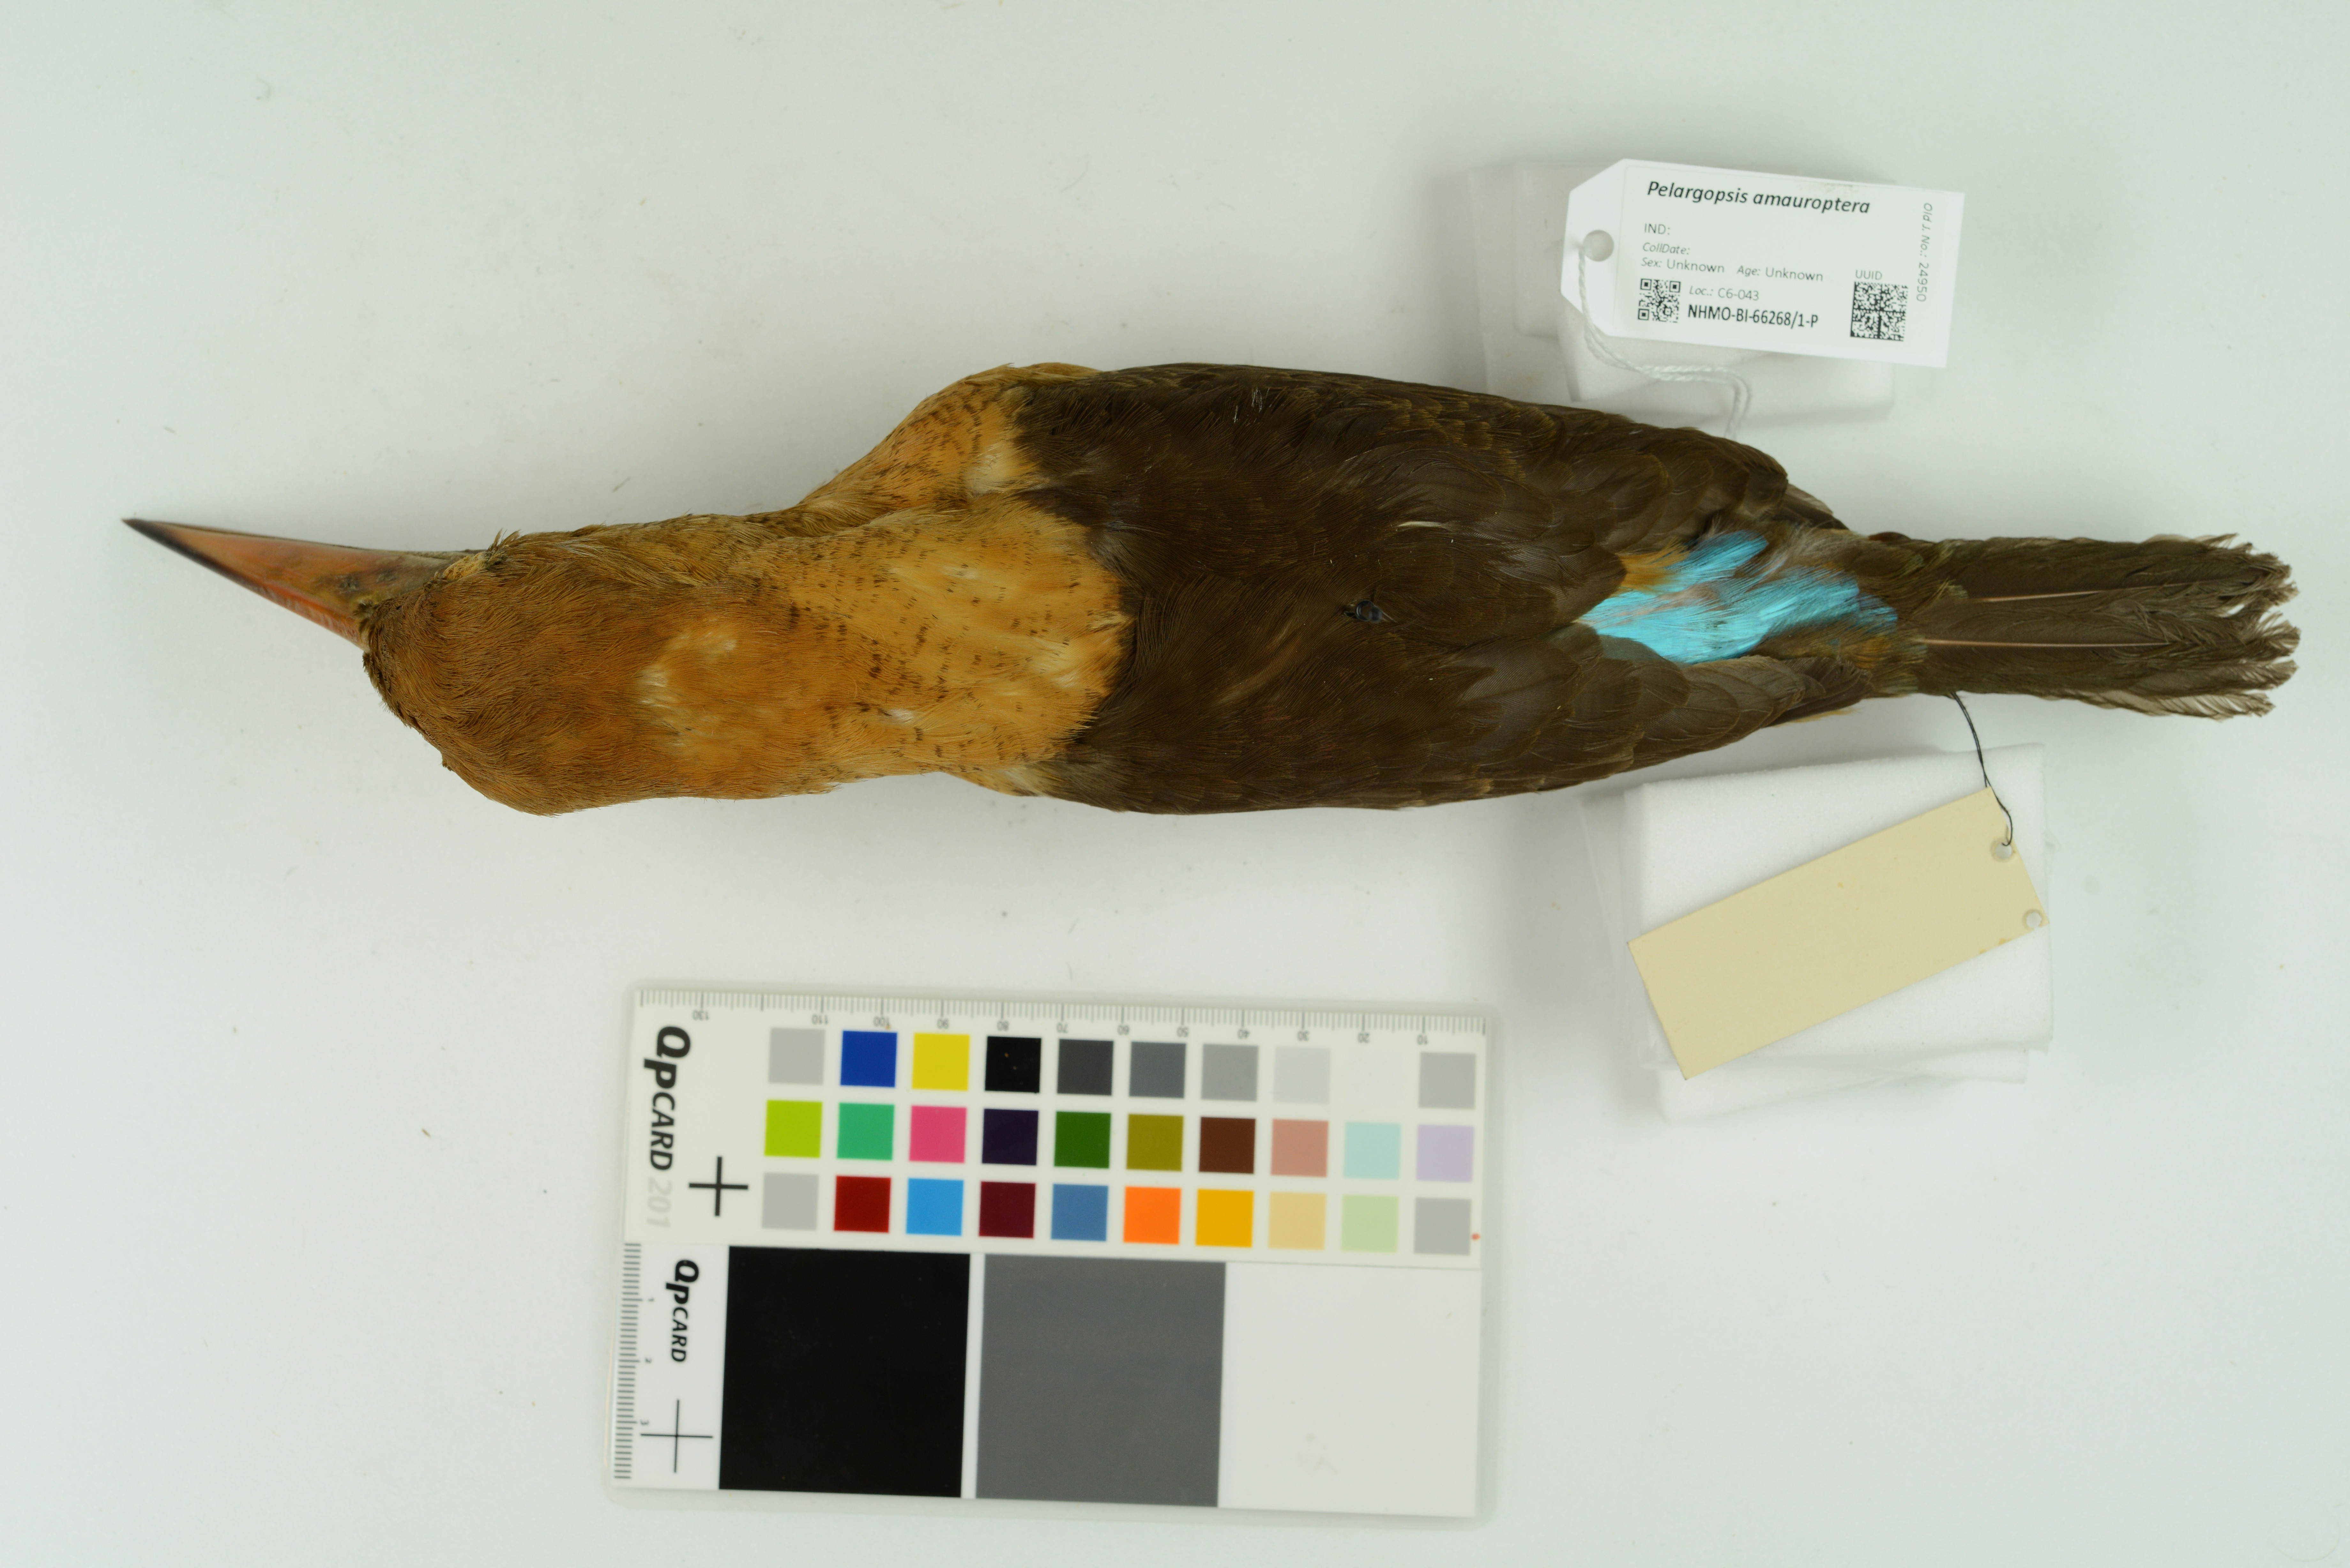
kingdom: Animalia
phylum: Chordata
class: Aves
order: Coraciiformes
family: Alcedinidae
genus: Pelargopsis
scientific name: Pelargopsis amauroptera
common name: Brown-winged kingfisher
